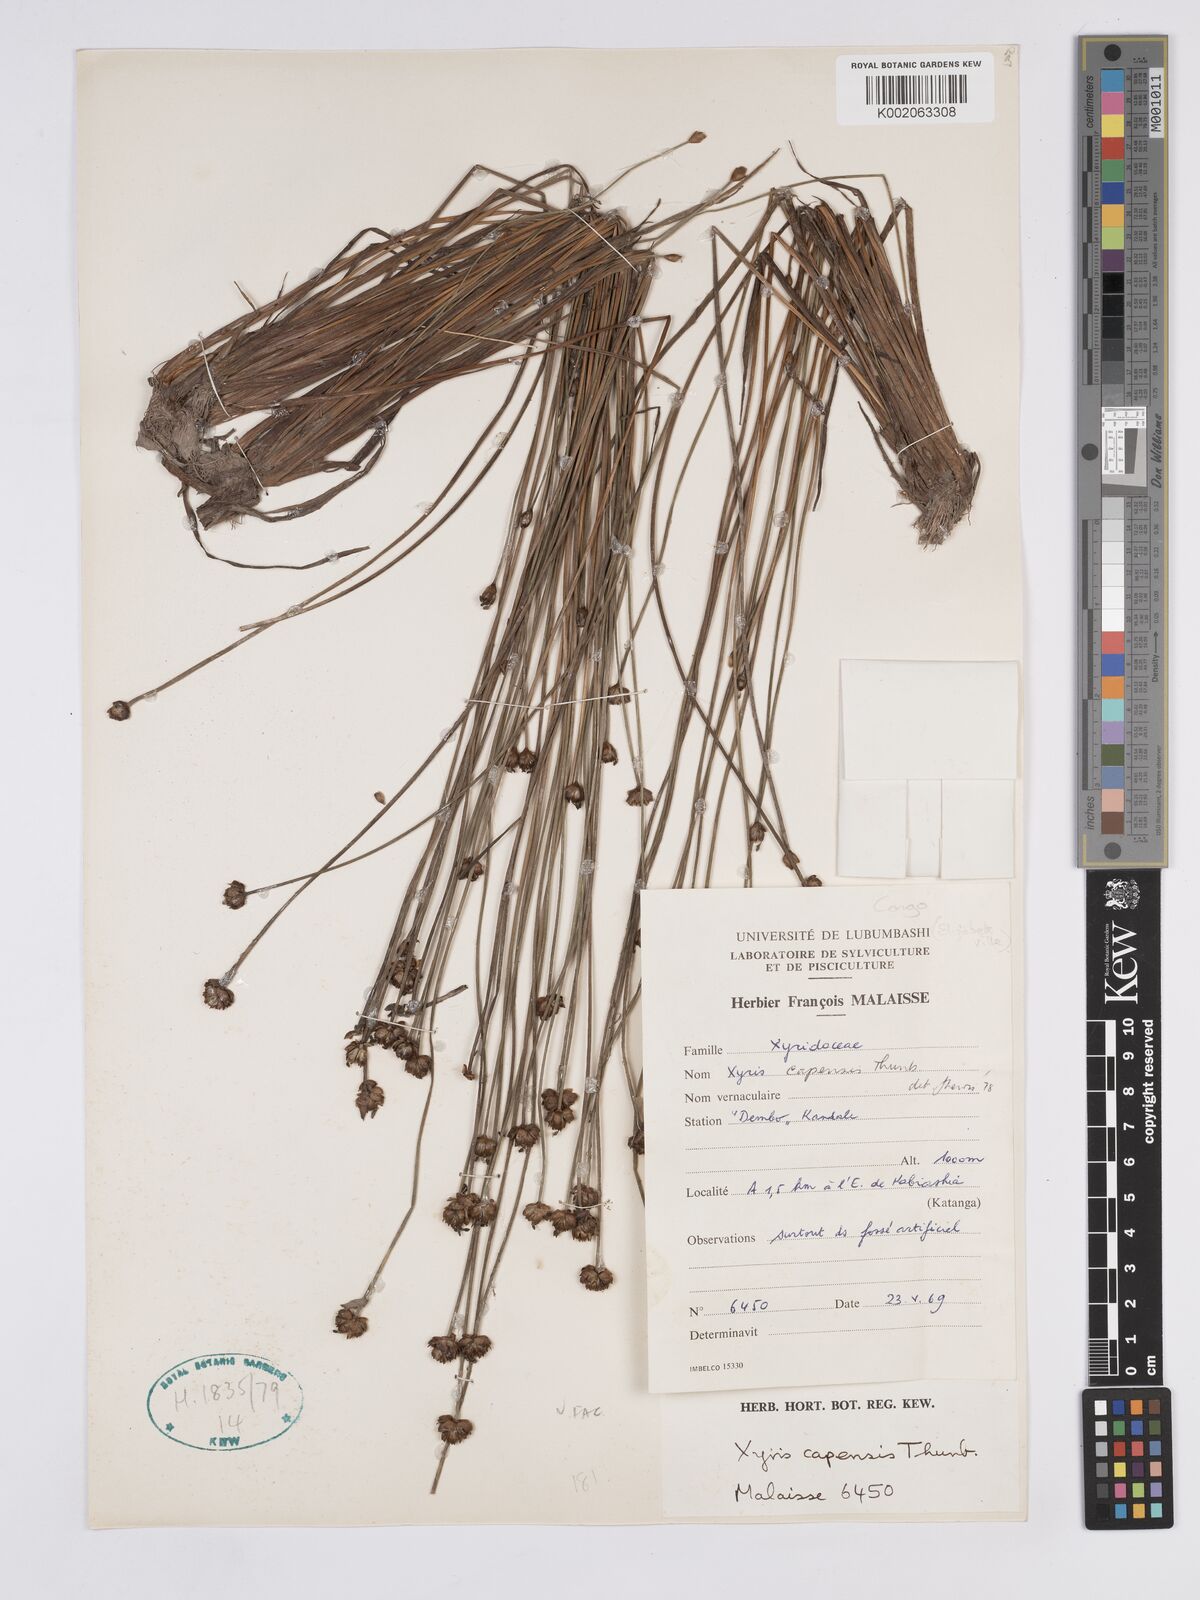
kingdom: Plantae
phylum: Tracheophyta
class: Liliopsida
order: Poales
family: Xyridaceae
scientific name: Xyridaceae
